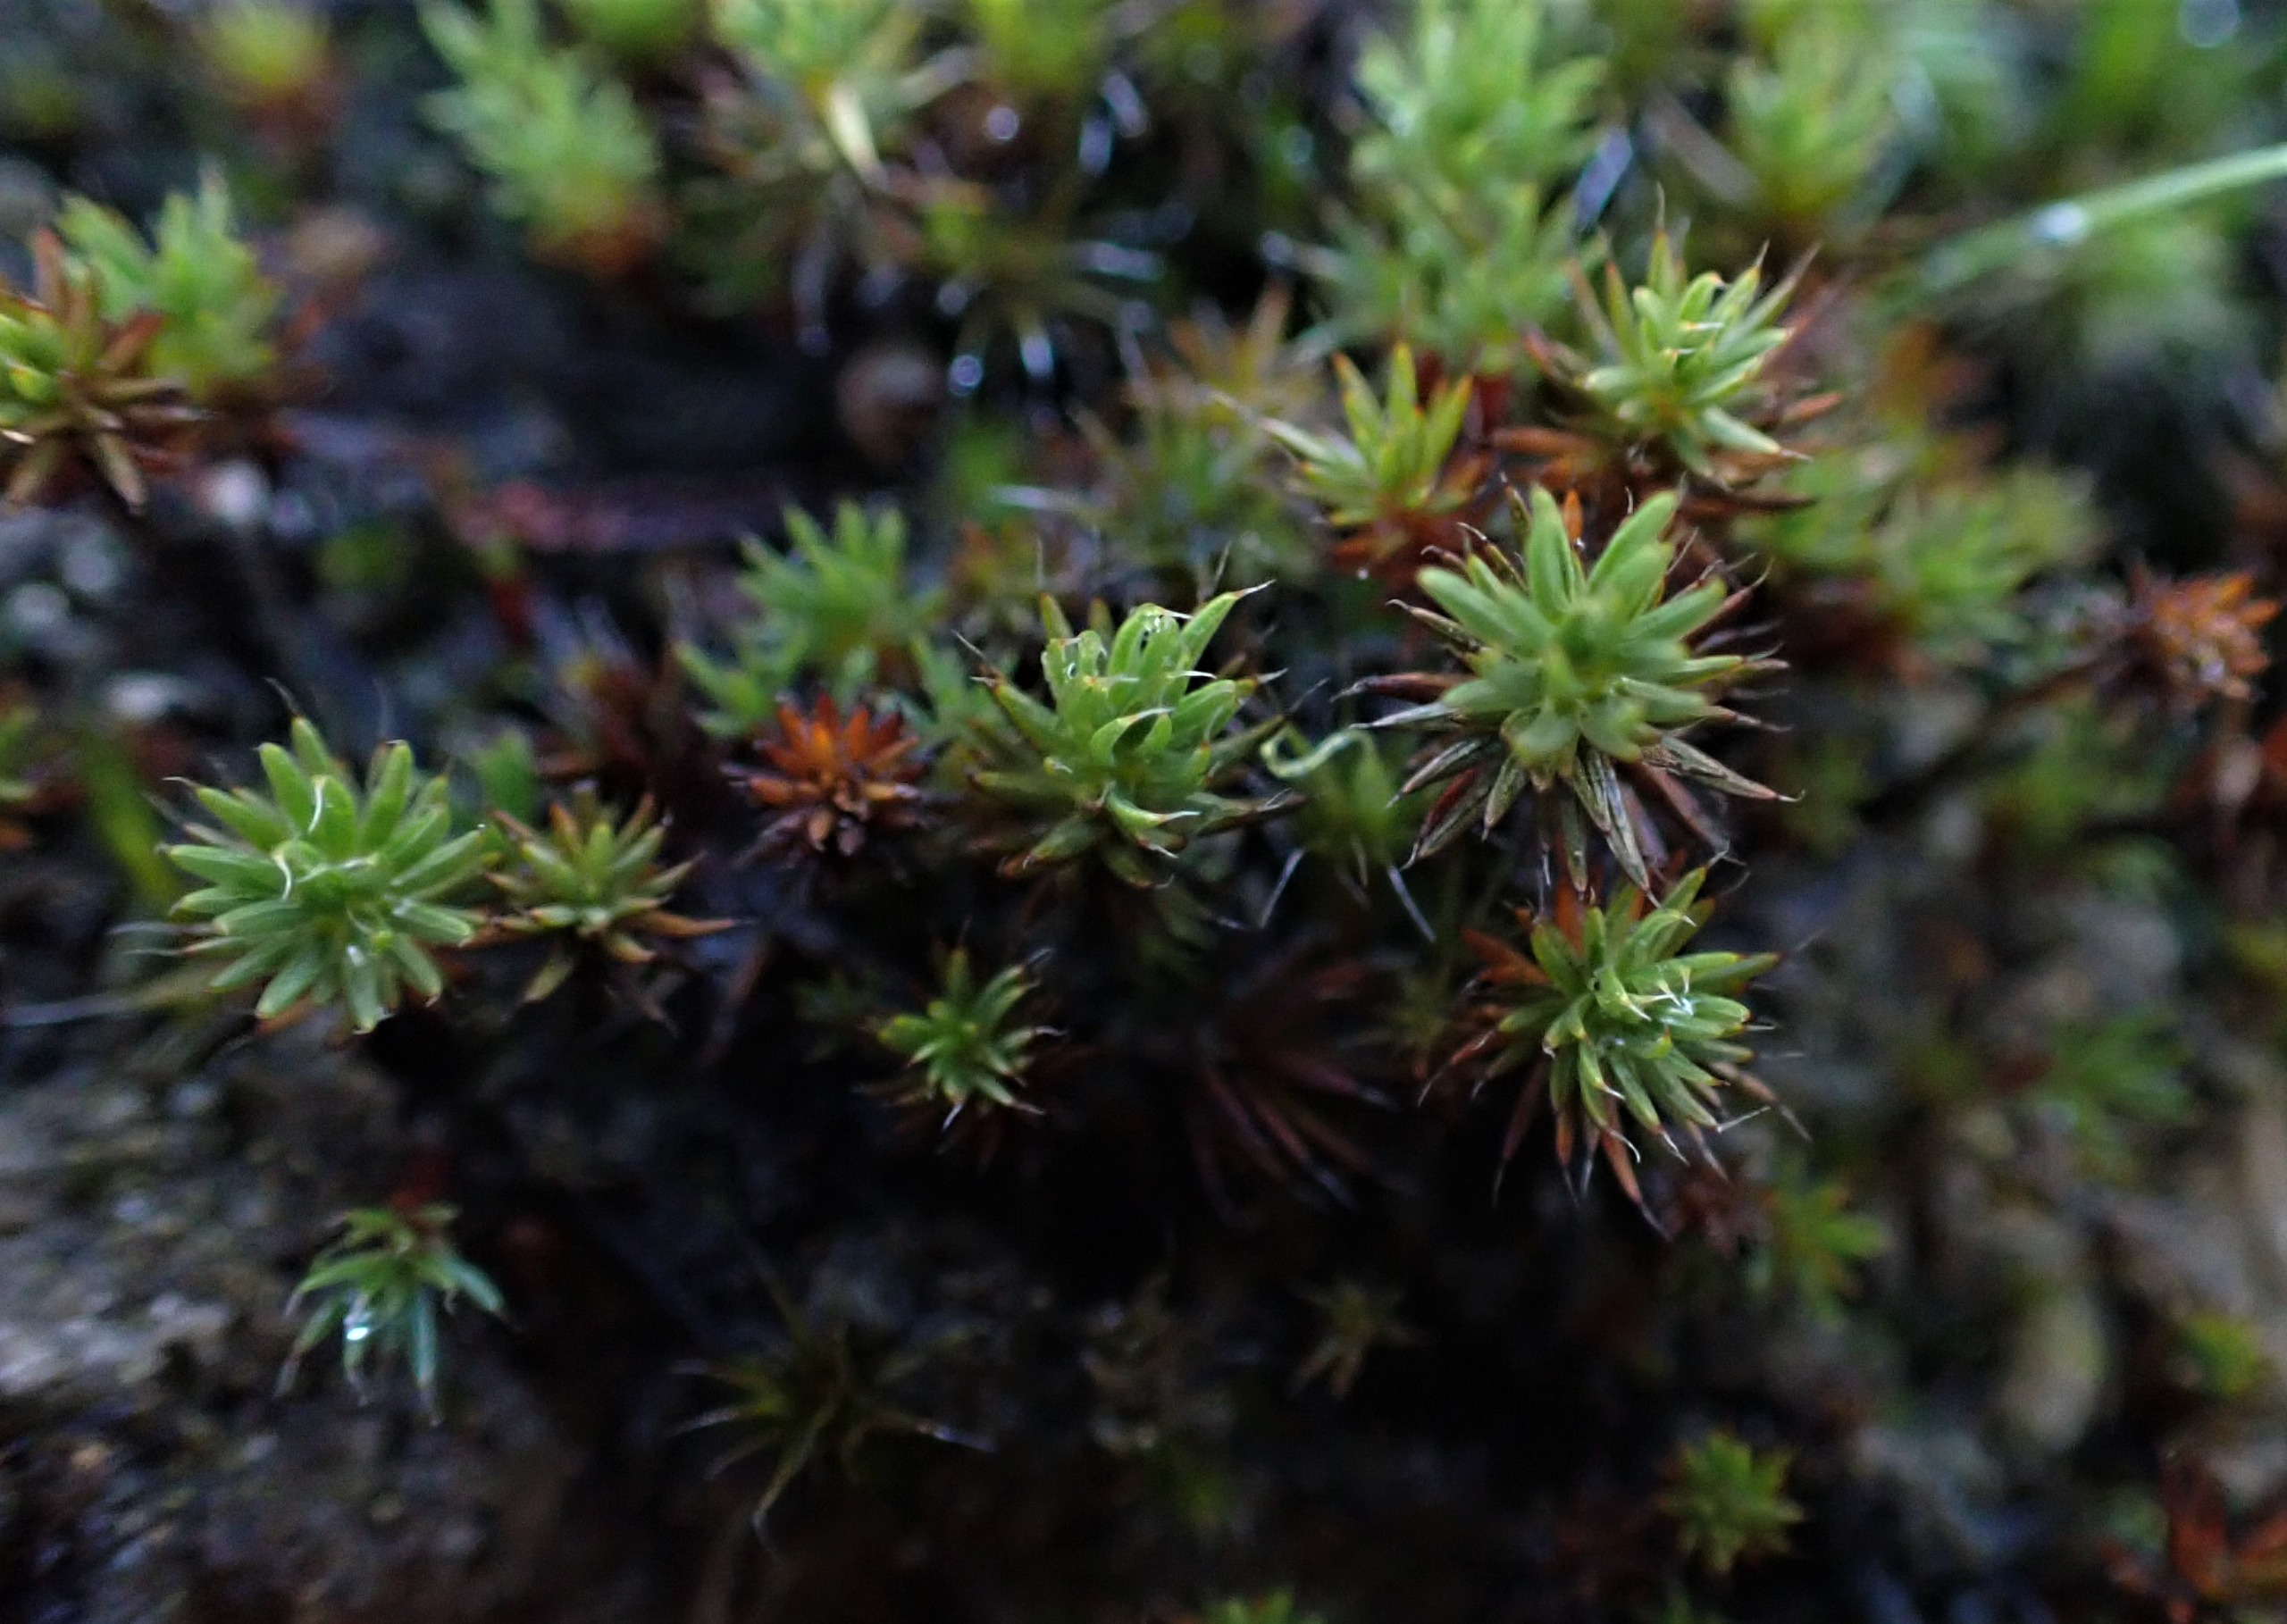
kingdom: Plantae
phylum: Bryophyta
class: Polytrichopsida
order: Polytrichales
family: Polytrichaceae
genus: Polytrichum
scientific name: Polytrichum piliferum
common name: Hårspidset jomfruhår
